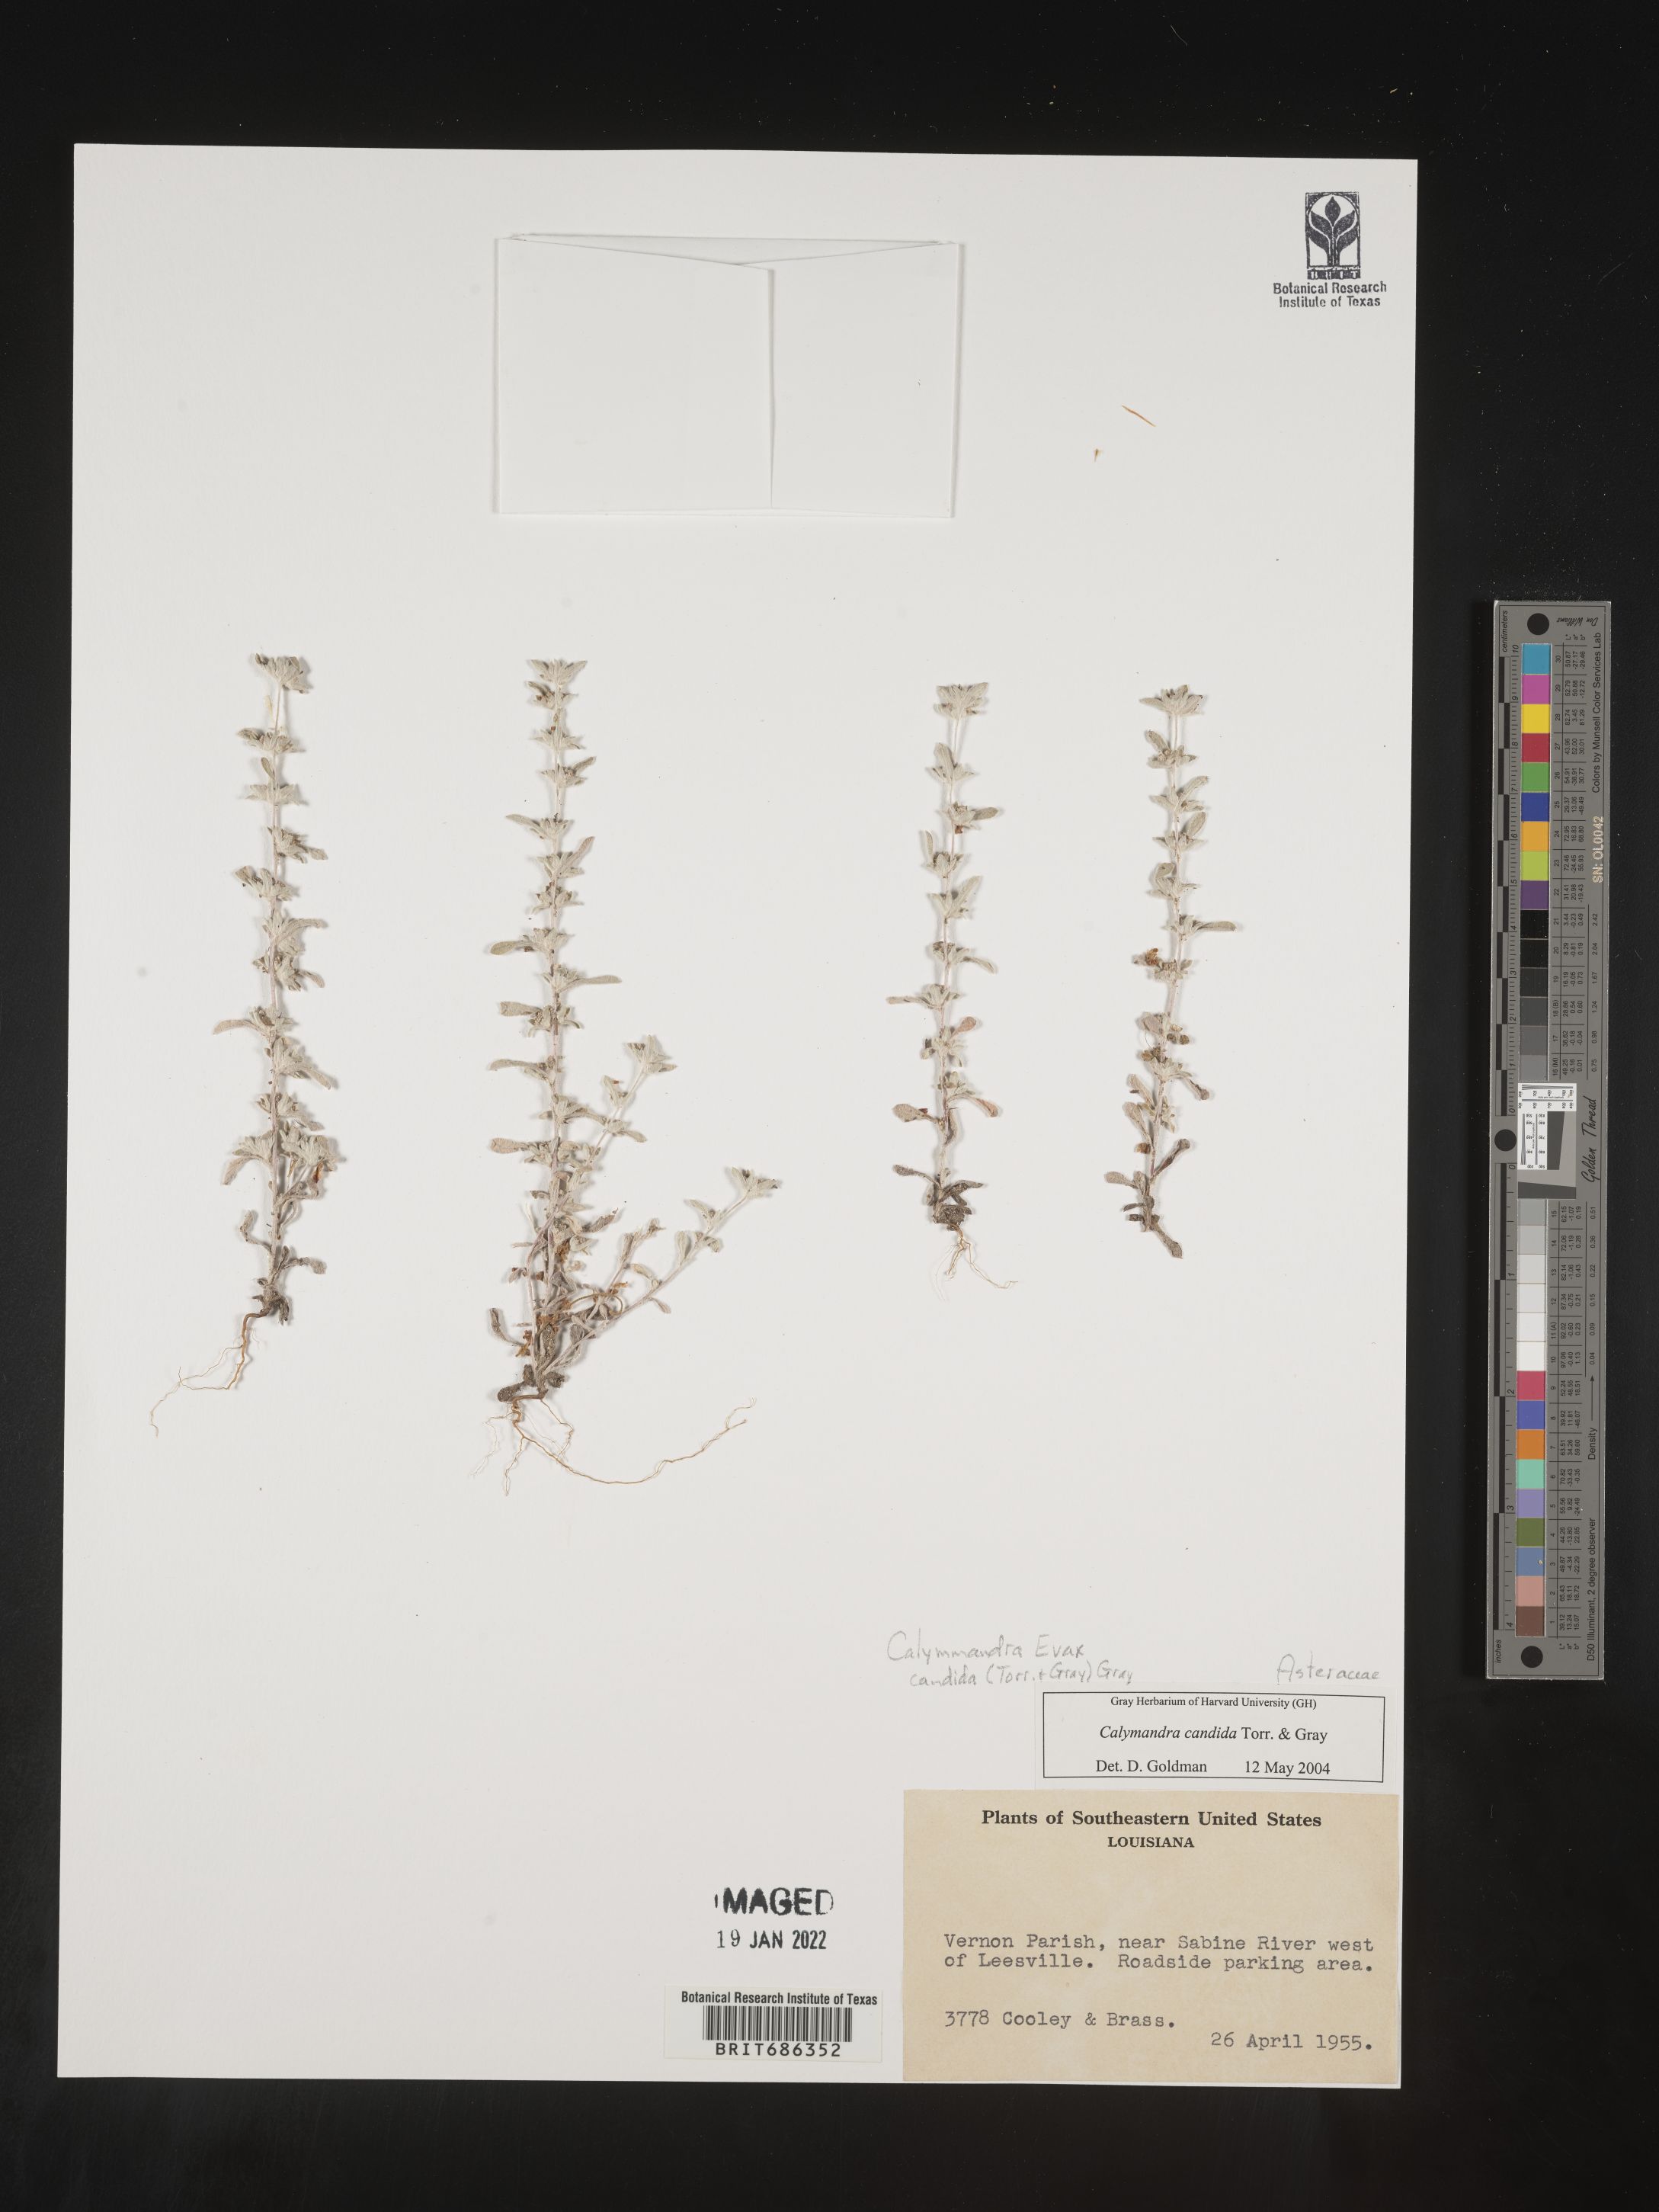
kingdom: Plantae
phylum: Tracheophyta
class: Magnoliopsida
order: Asterales
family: Asteraceae
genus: Diaperia
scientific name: Diaperia
